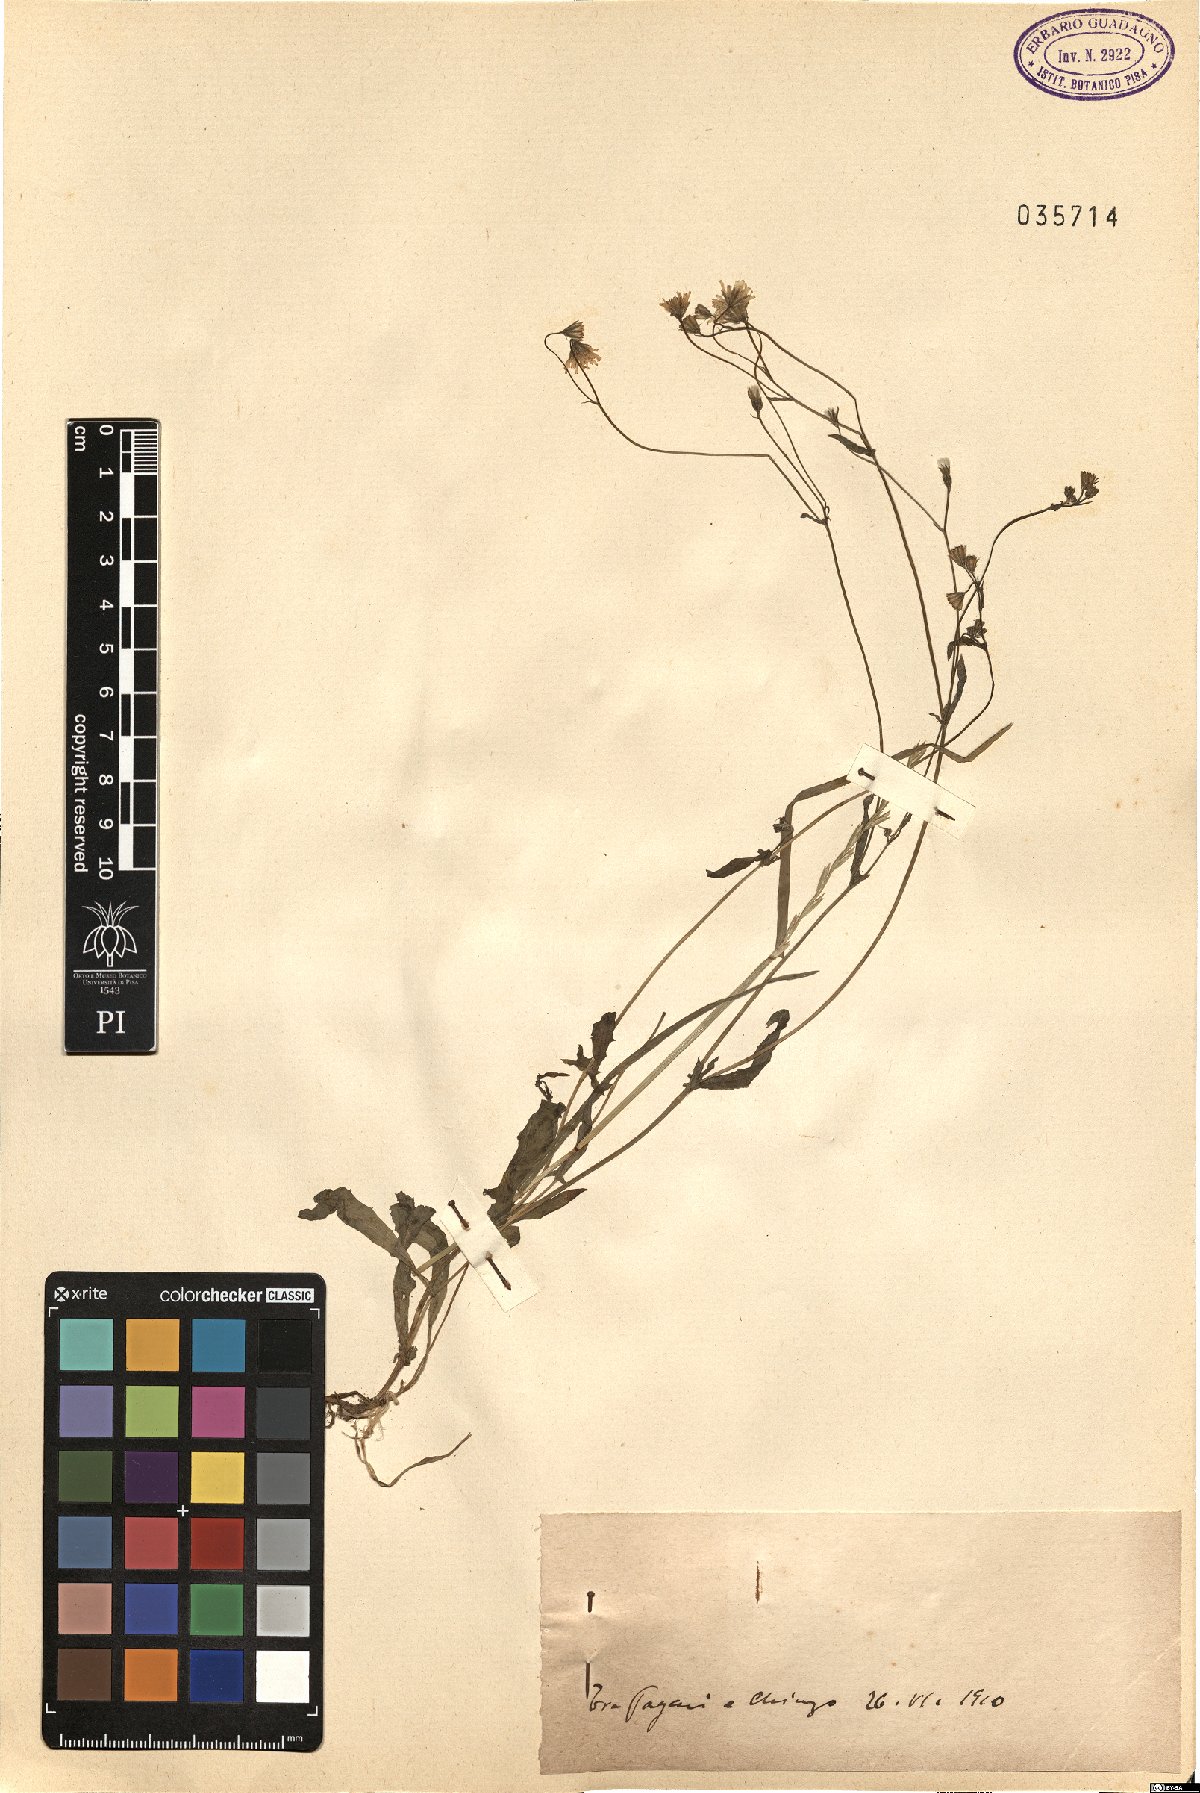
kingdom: Plantae
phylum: Tracheophyta
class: Magnoliopsida
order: Asterales
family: Asteraceae
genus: Crepis
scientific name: Crepis
